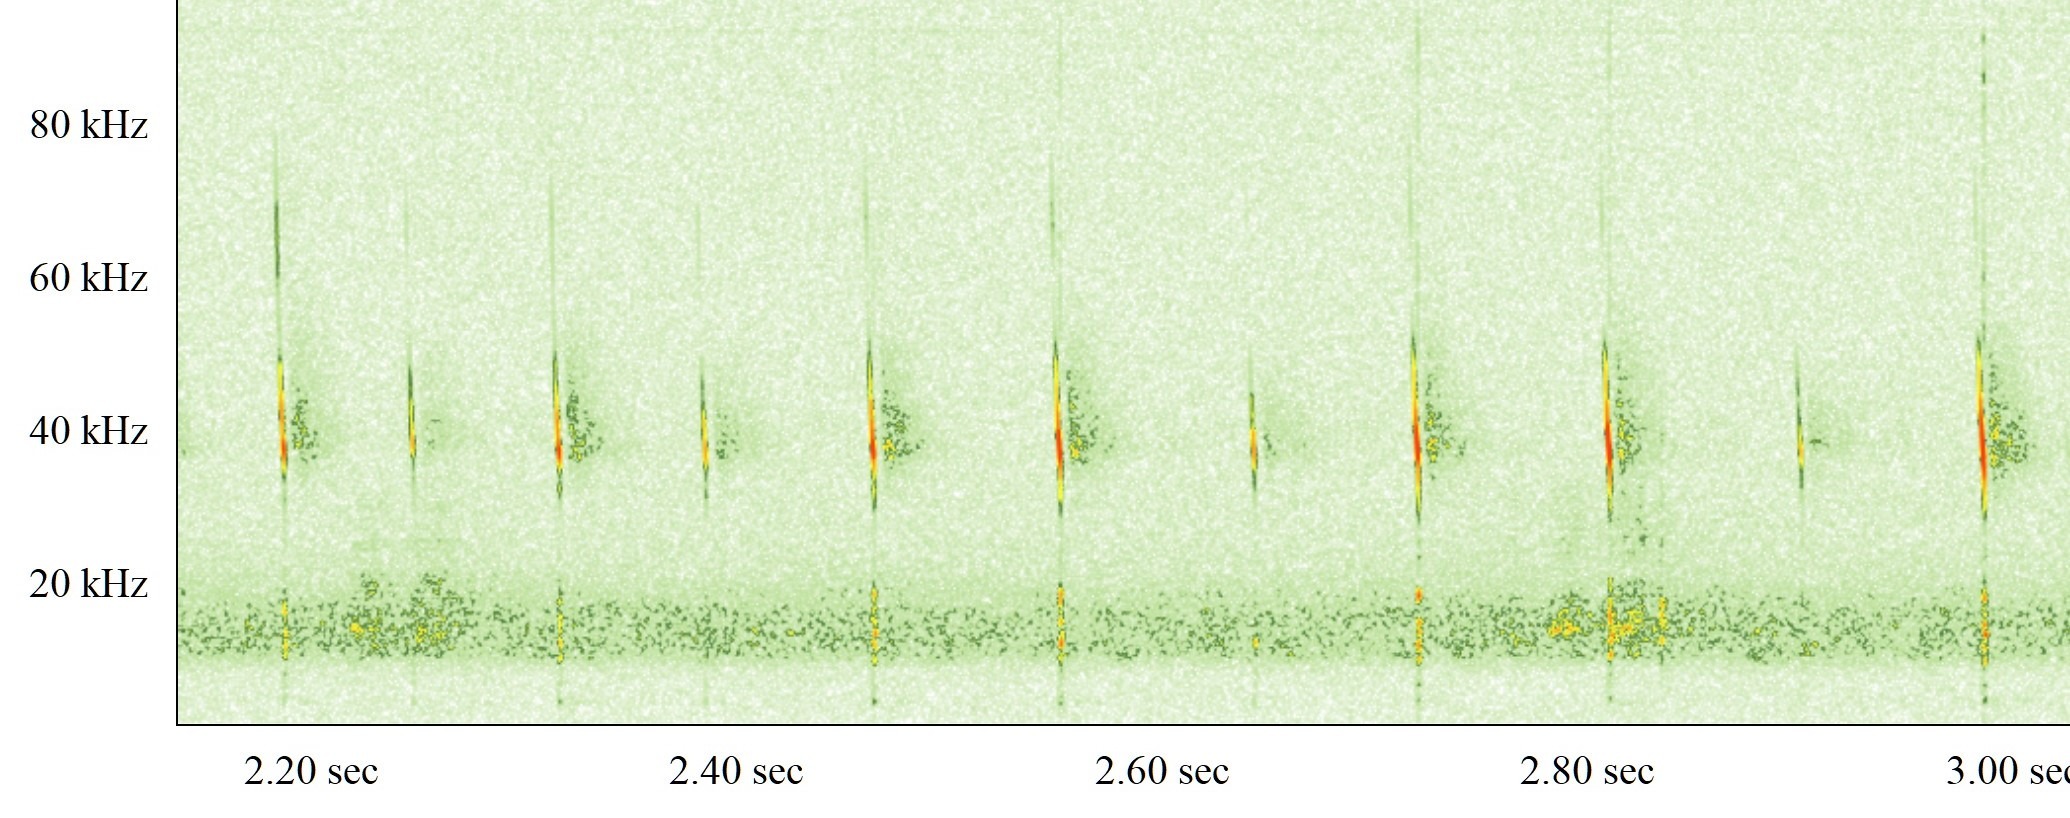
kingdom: Animalia
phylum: Chordata
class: Mammalia
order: Chiroptera
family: Vespertilionidae
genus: Plecotus
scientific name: Plecotus auritus
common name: Brun langøre
